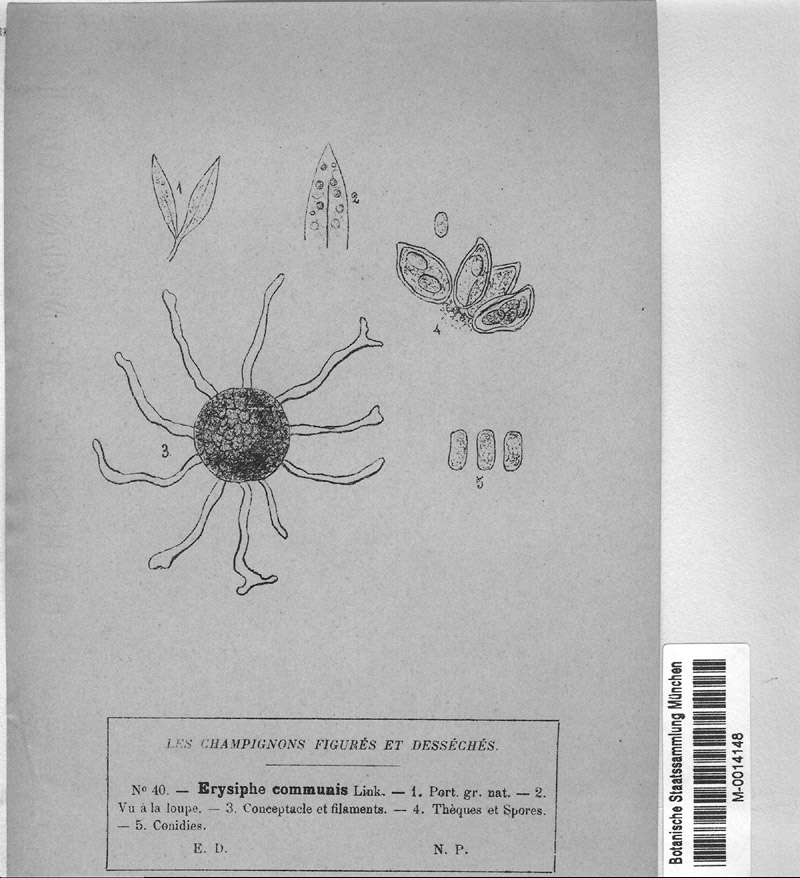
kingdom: Fungi
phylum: Ascomycota
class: Leotiomycetes
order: Helotiales
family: Erysiphaceae
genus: Erysiphe
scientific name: Erysiphe cruciferarum
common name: Brassica powdery mildew
